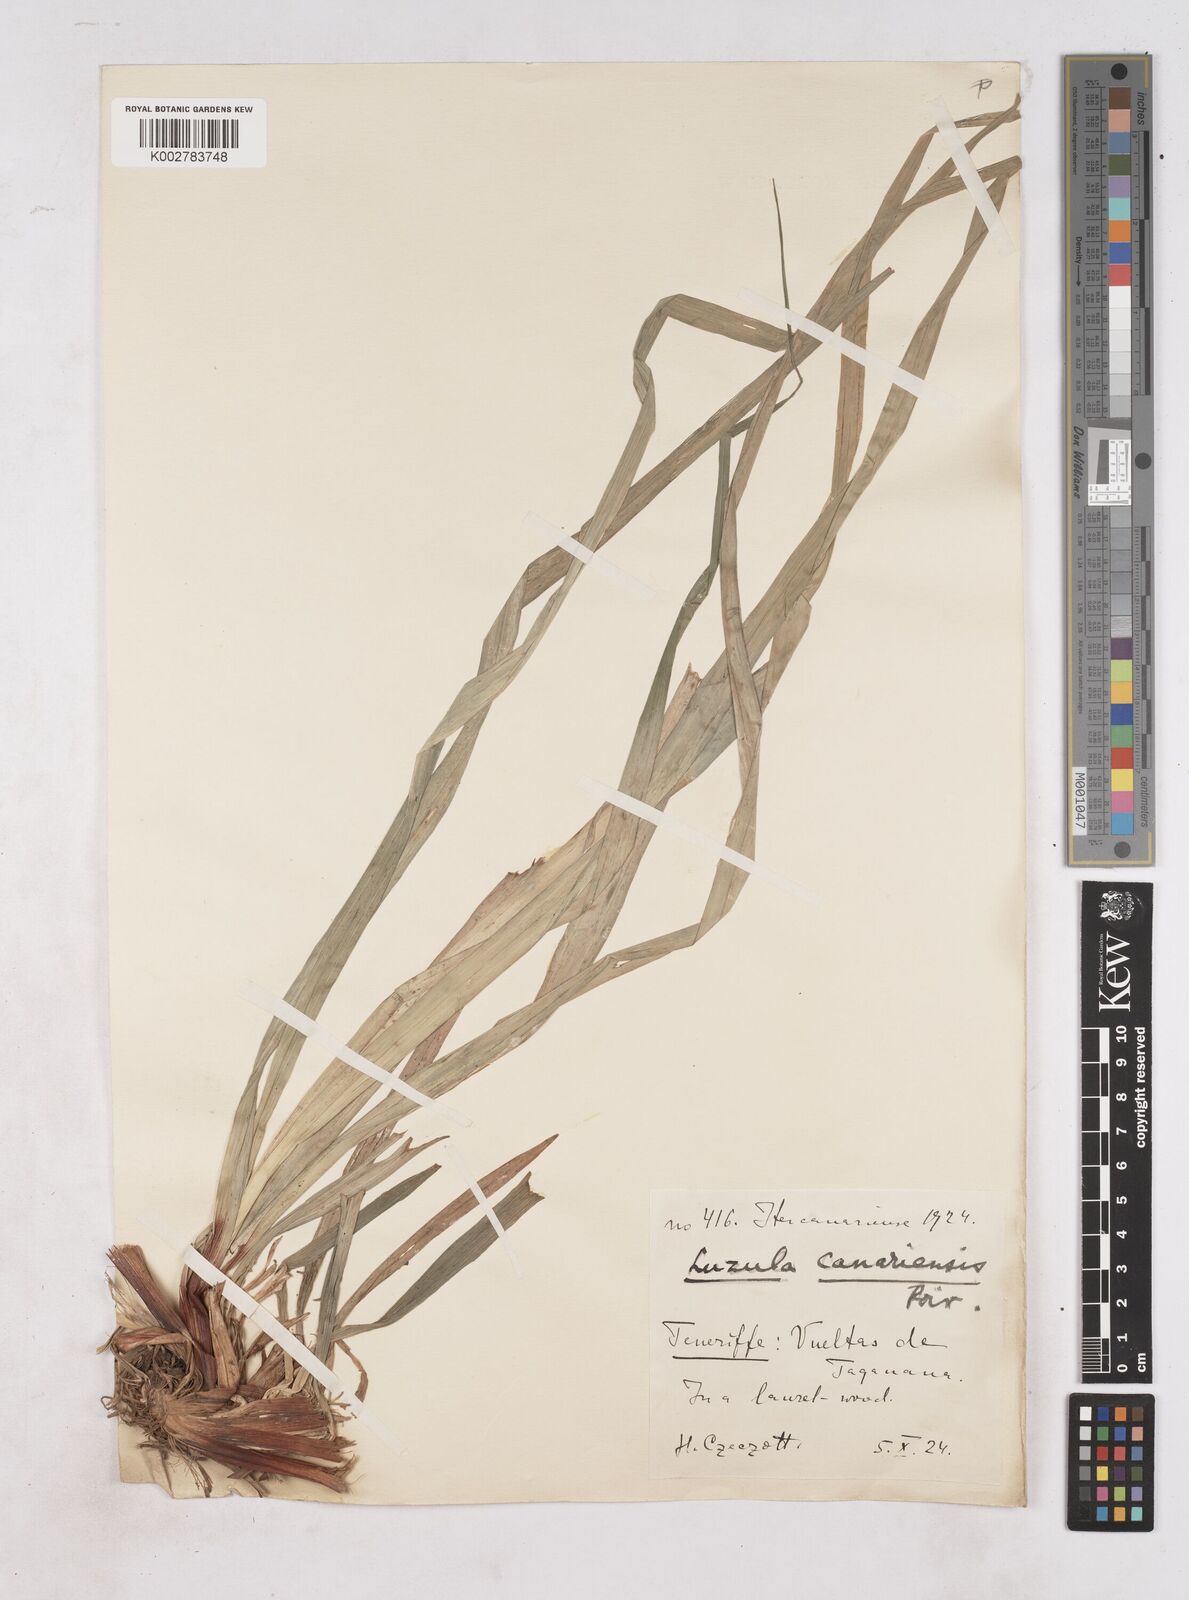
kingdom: Plantae
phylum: Tracheophyta
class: Liliopsida
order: Poales
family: Juncaceae
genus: Luzula
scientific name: Luzula canariensis
